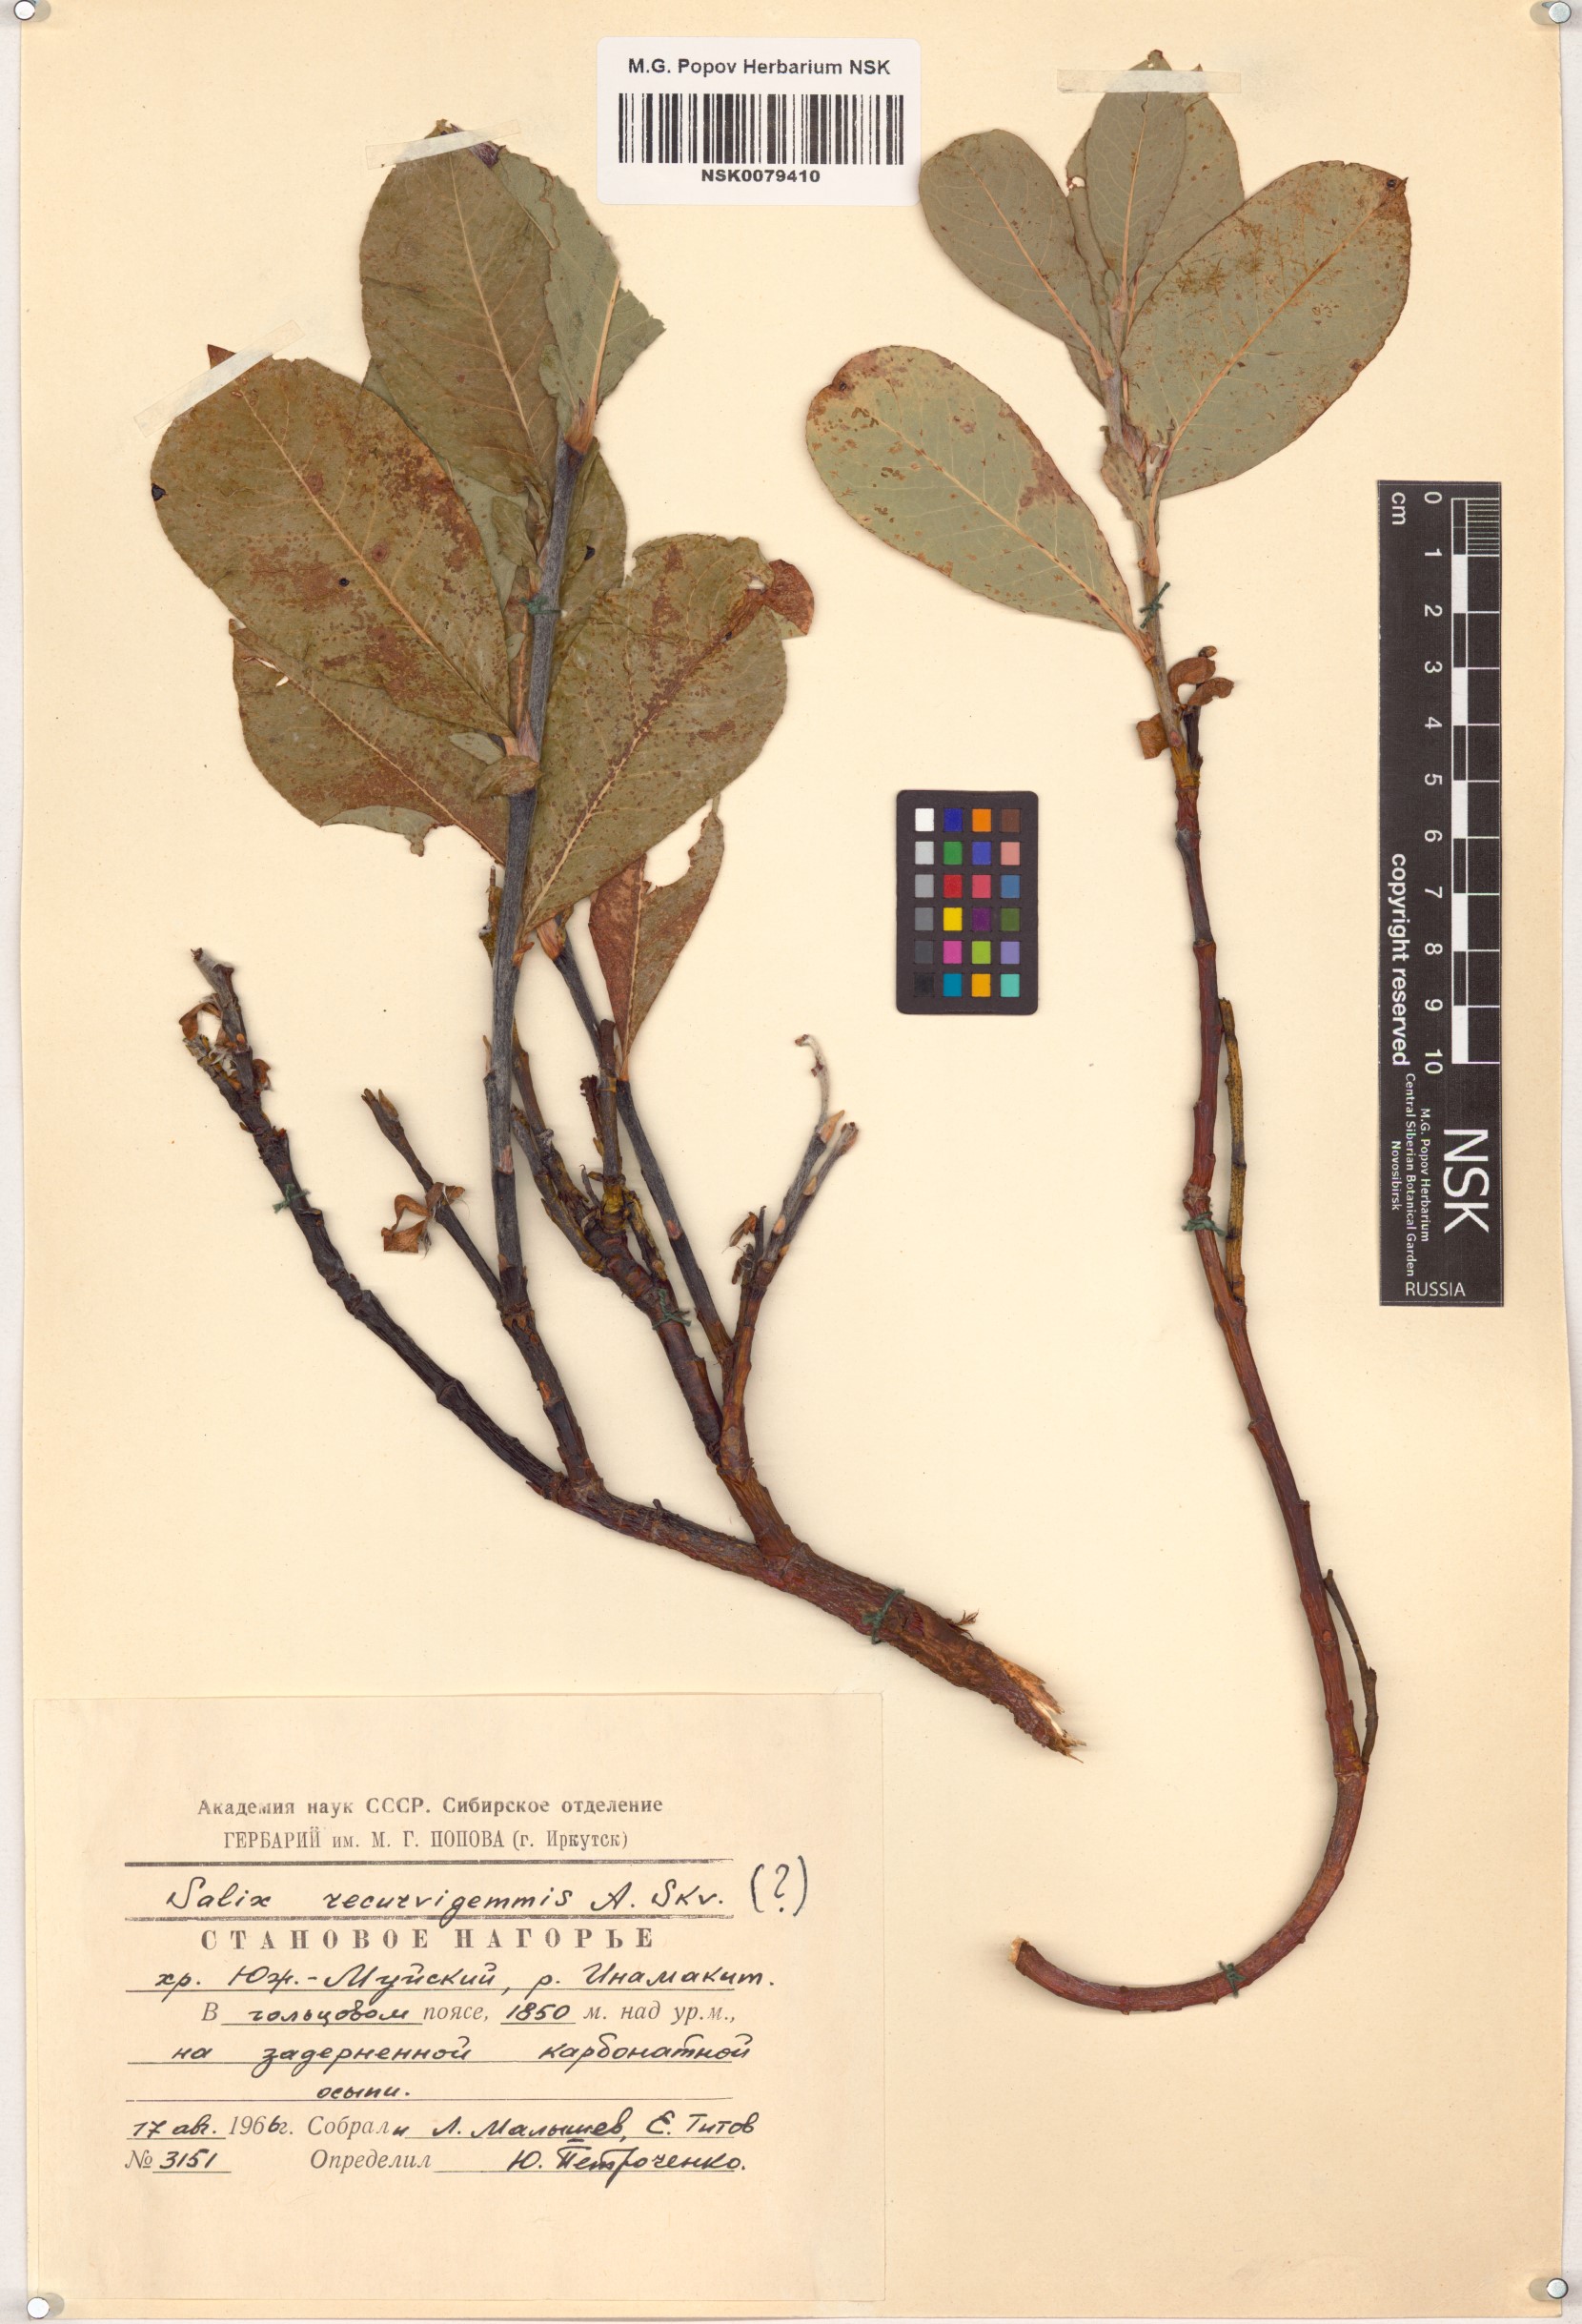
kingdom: Plantae
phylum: Tracheophyta
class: Magnoliopsida
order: Malpighiales
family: Salicaceae
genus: Salix
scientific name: Salix recurvigemmata
